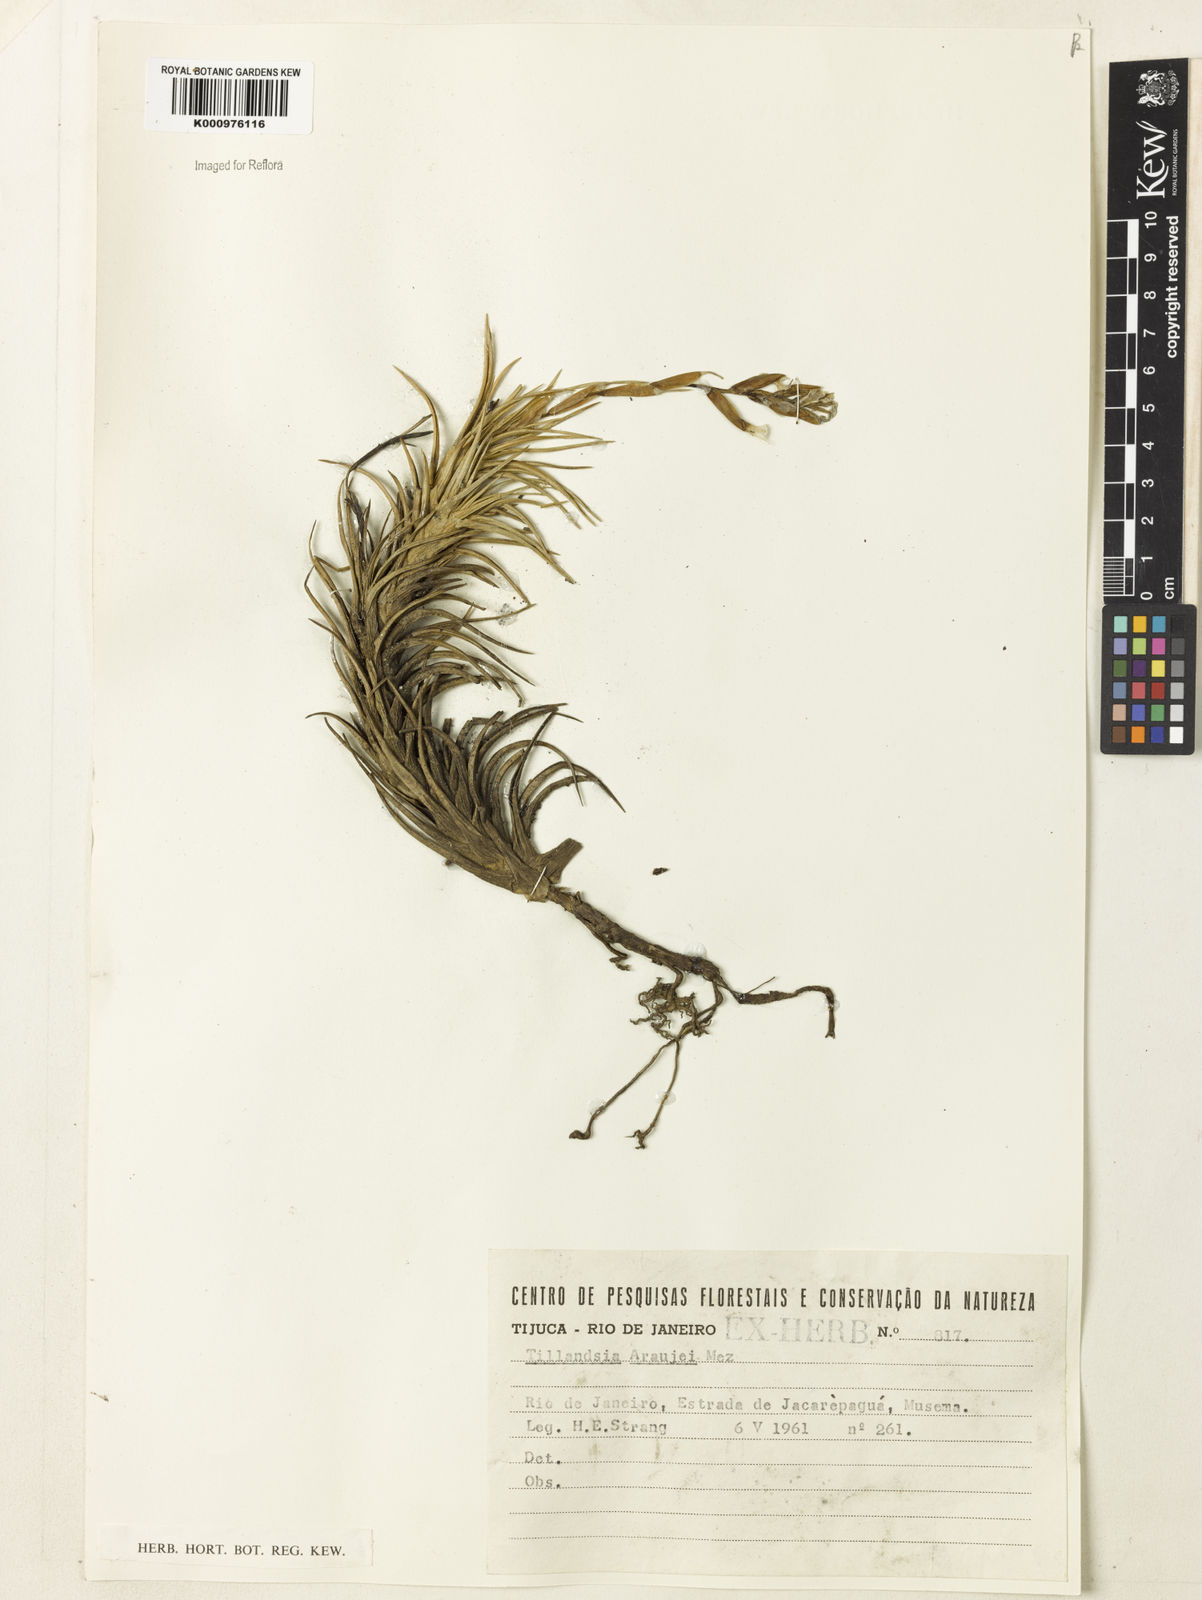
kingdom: Plantae
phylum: Tracheophyta
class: Liliopsida
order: Poales
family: Bromeliaceae
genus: Tillandsia
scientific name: Tillandsia araujei
